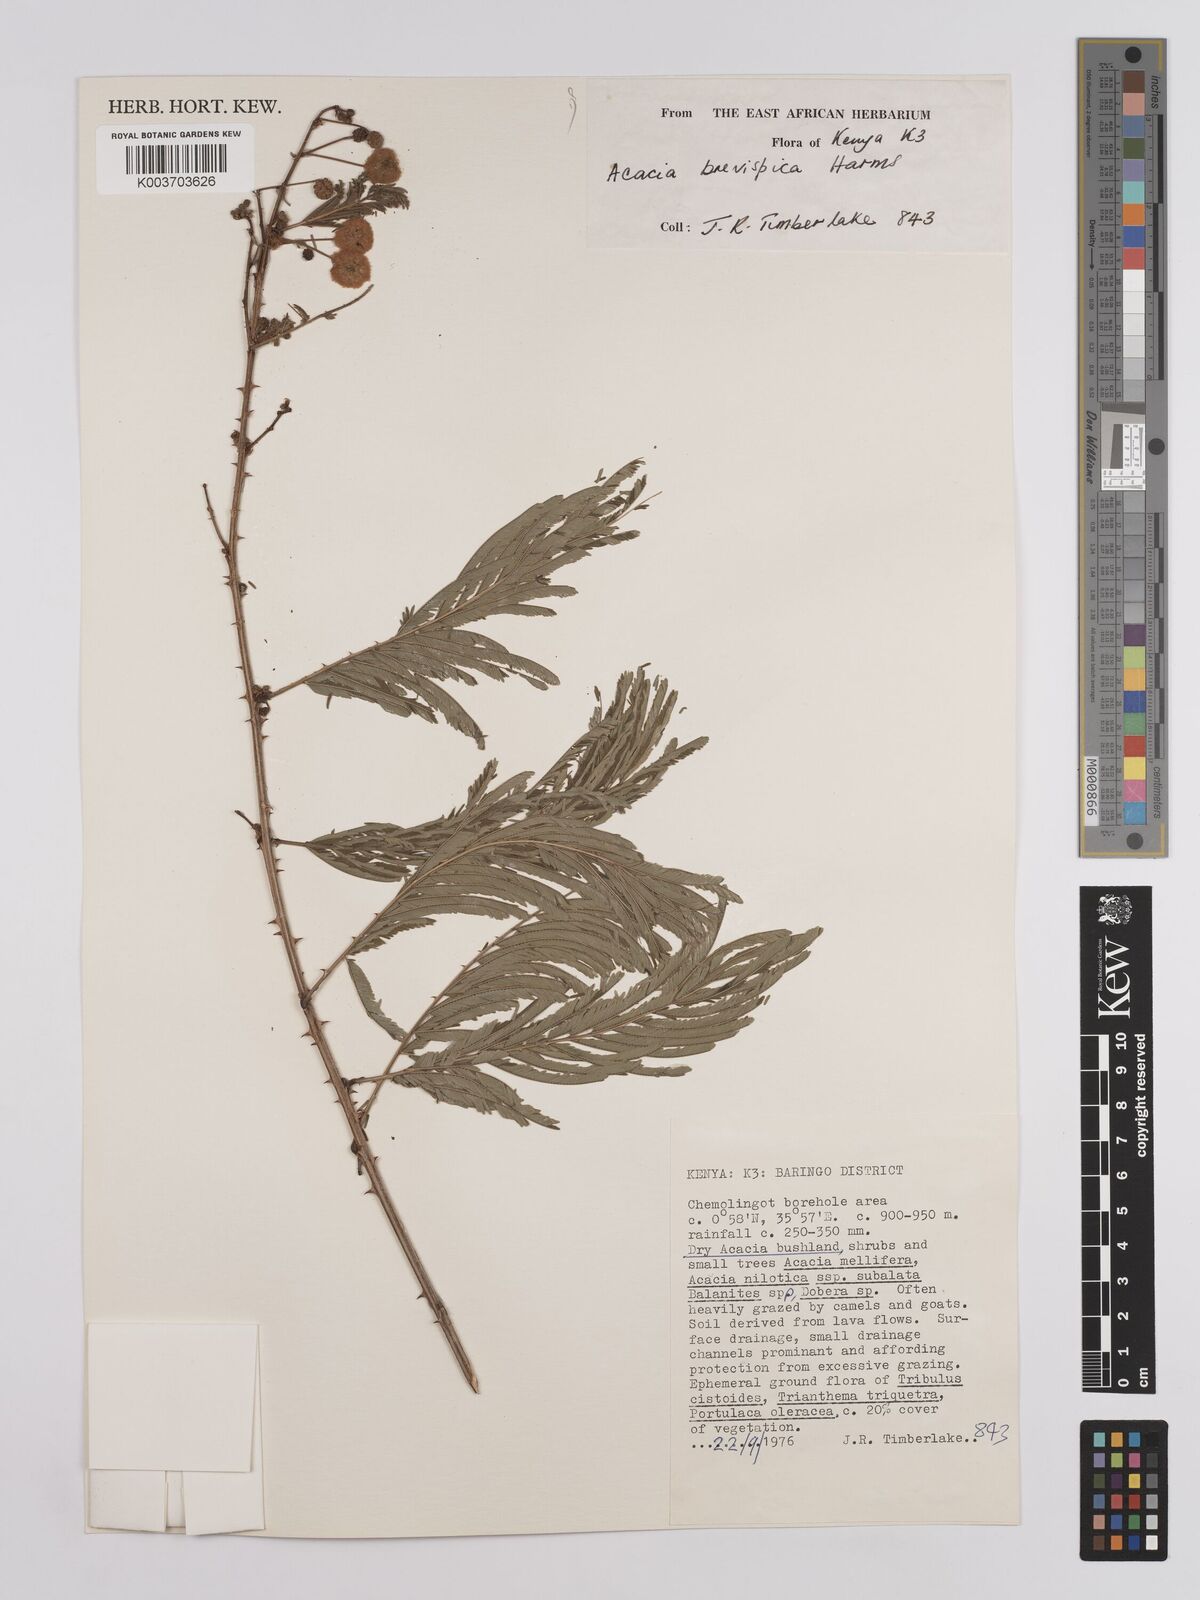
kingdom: Plantae
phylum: Tracheophyta
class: Magnoliopsida
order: Fabales
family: Fabaceae
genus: Senegalia
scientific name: Senegalia brevispica
